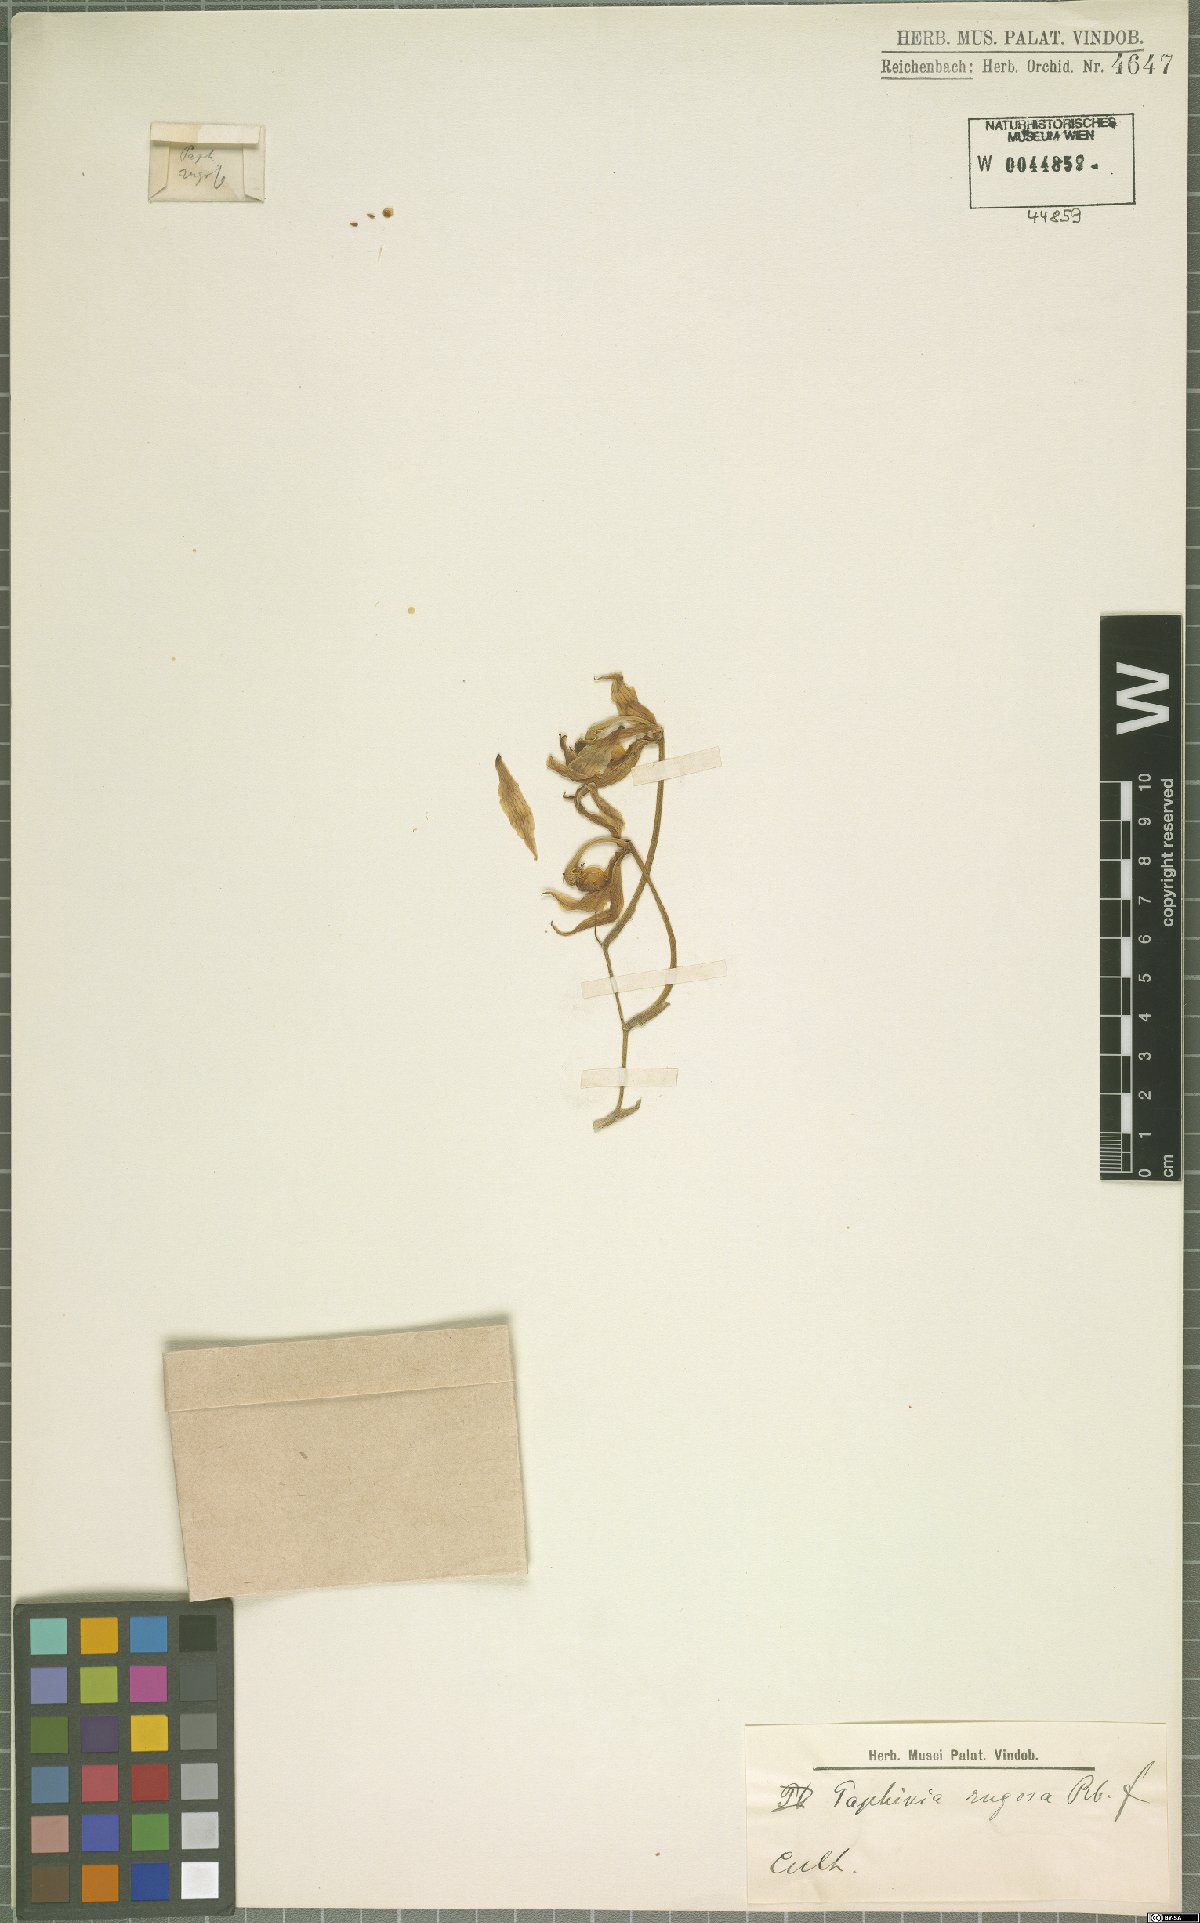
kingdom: Plantae
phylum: Tracheophyta
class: Liliopsida
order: Asparagales
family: Orchidaceae
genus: Paphinia
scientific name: Paphinia rugosa
